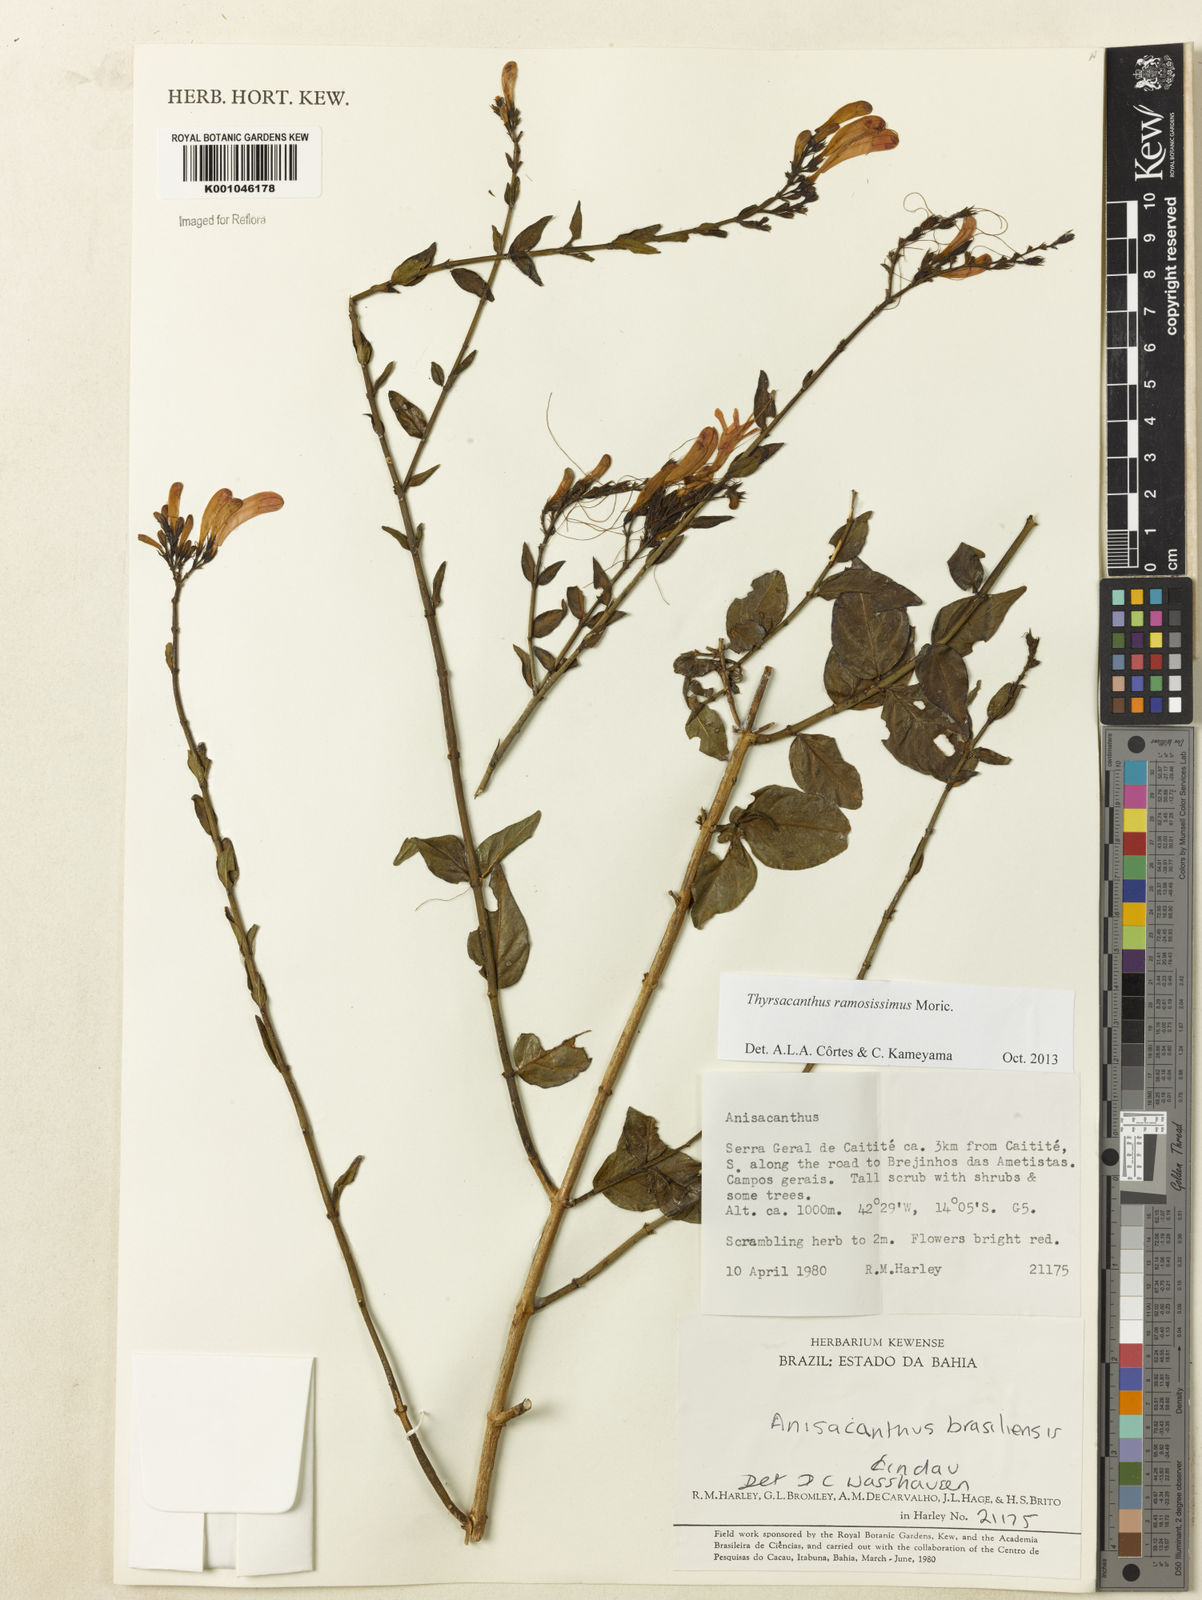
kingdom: Plantae
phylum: Tracheophyta
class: Magnoliopsida
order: Lamiales
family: Acanthaceae
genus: Thyrsacanthus
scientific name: Thyrsacanthus ramosissimus
